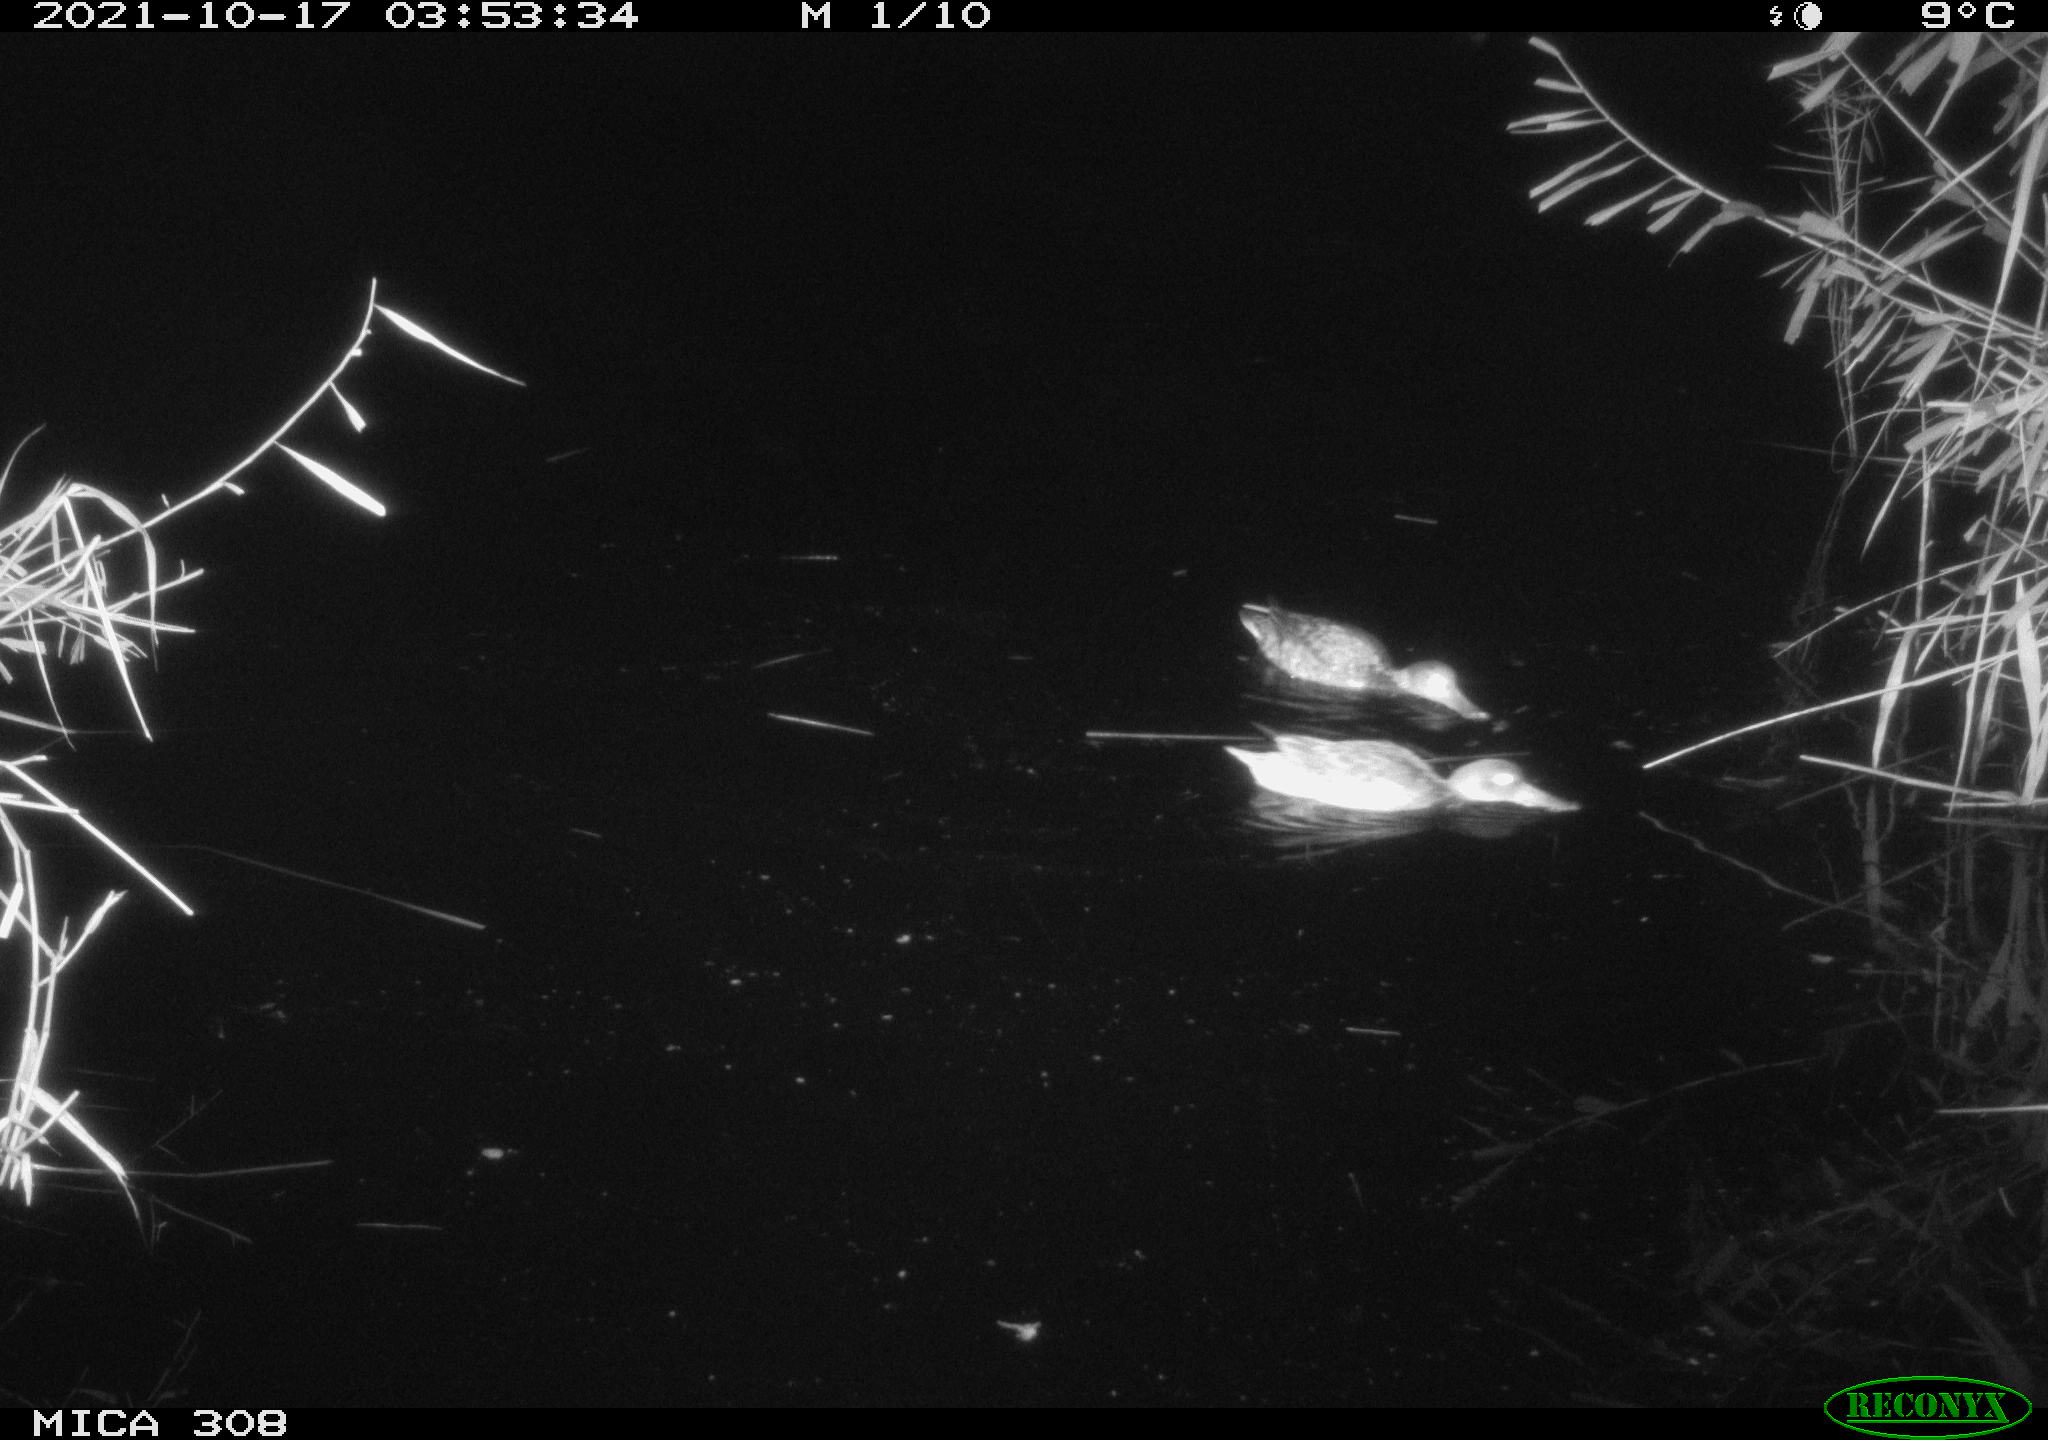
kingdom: Animalia
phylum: Chordata
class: Aves
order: Anseriformes
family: Anatidae
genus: Spatula
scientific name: Spatula clypeata
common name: Northern shoveler
